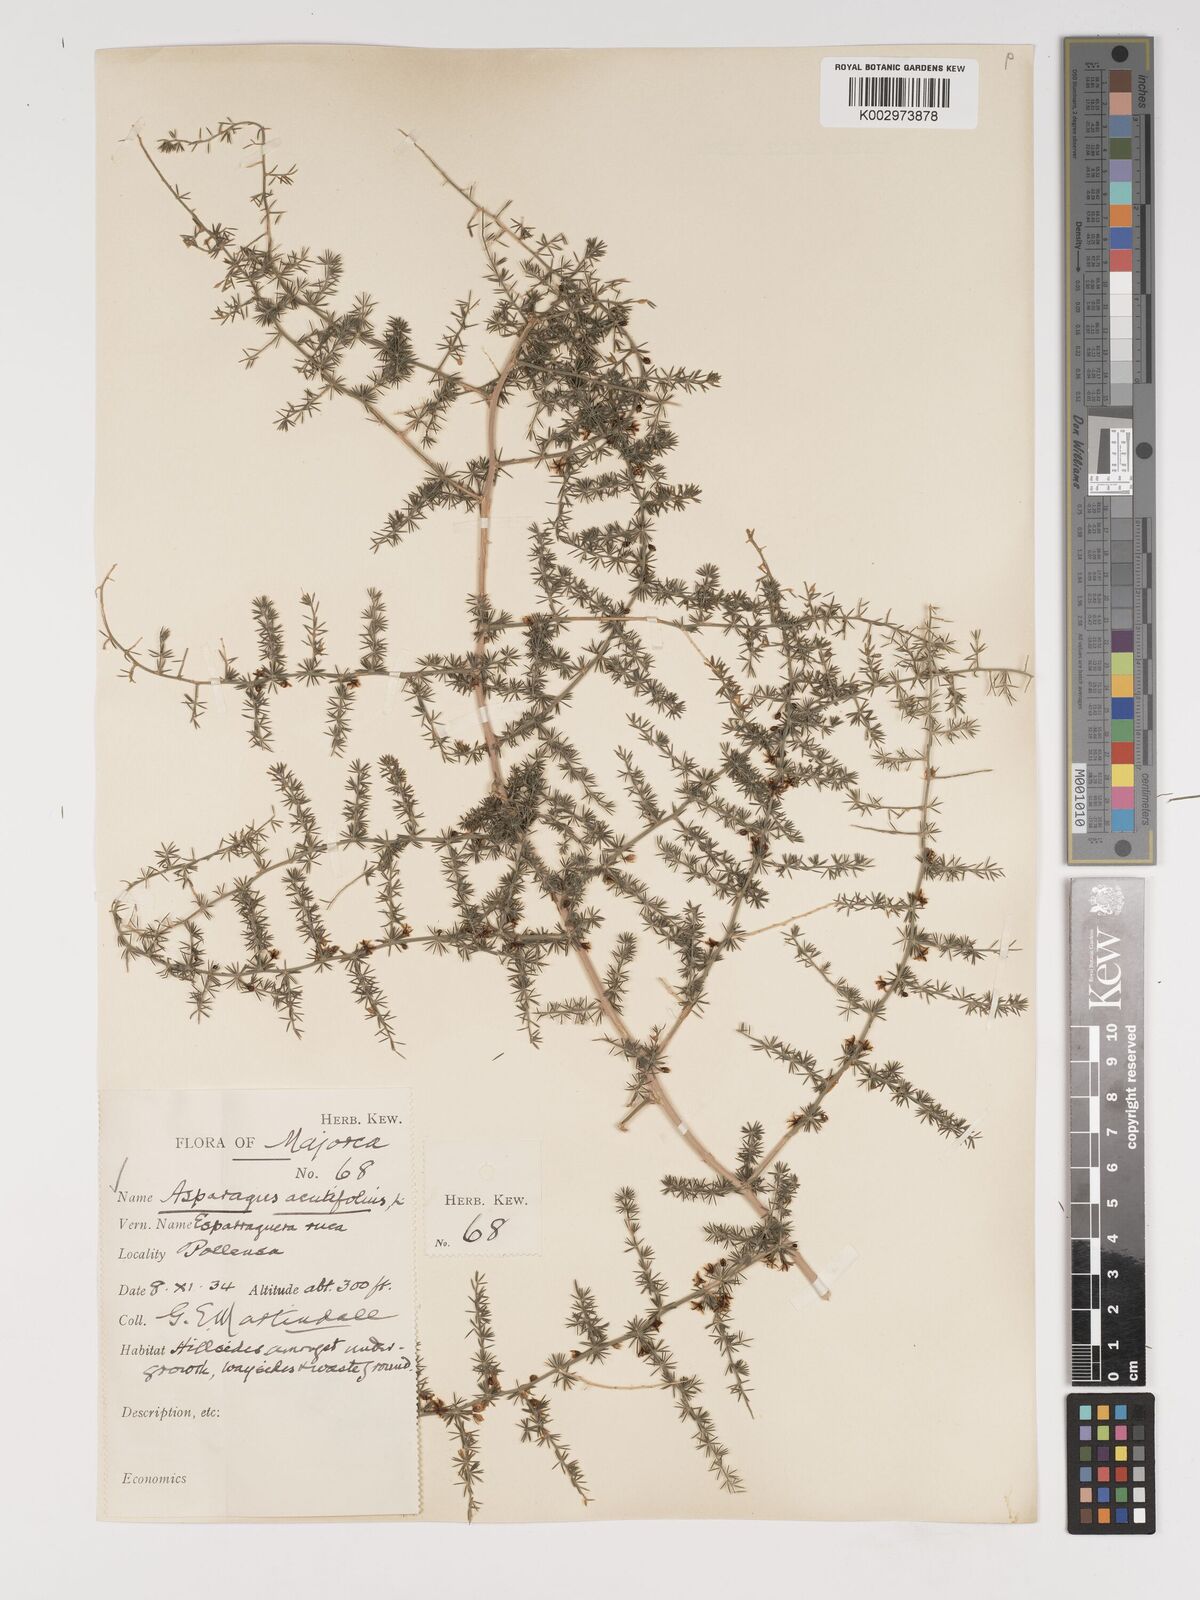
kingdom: Plantae
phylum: Tracheophyta
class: Liliopsida
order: Asparagales
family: Asparagaceae
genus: Asparagus
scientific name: Asparagus acutifolius
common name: Wild asparagus
